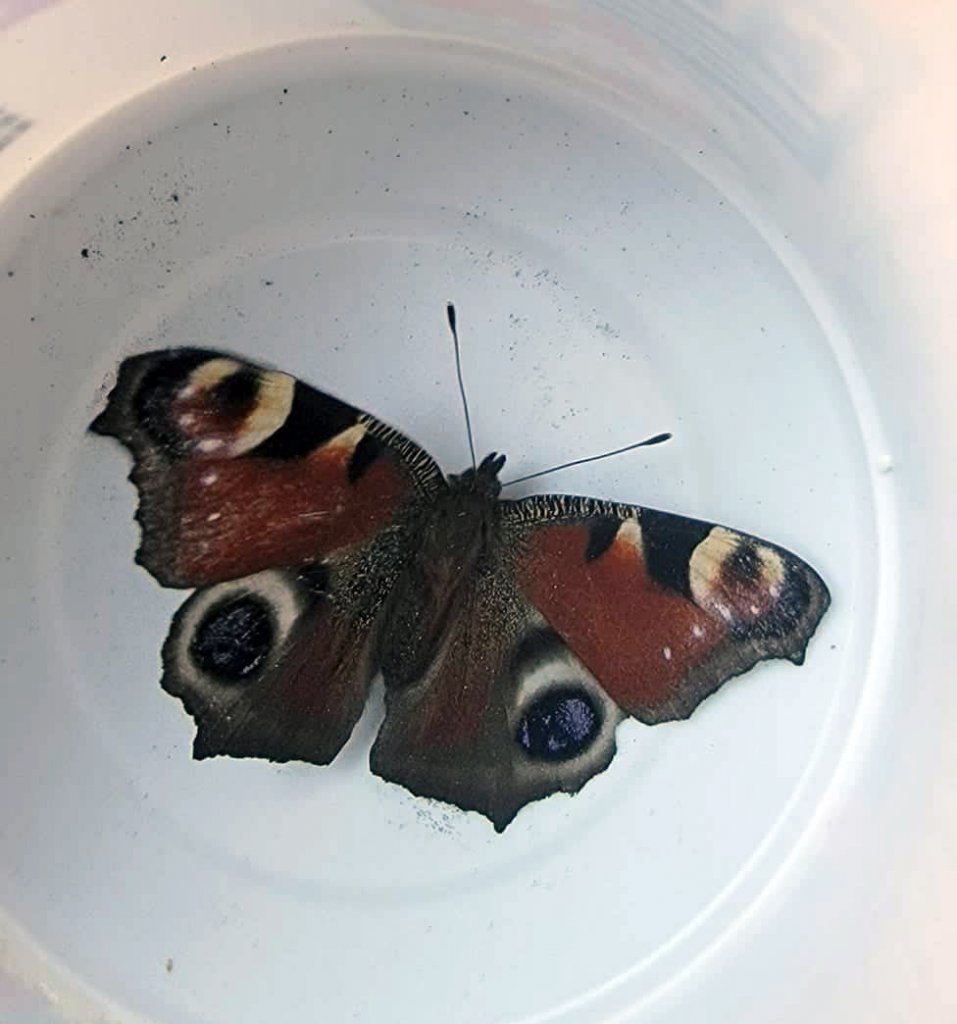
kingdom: Animalia
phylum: Arthropoda
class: Insecta
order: Lepidoptera
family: Nymphalidae
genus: Aglais
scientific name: Aglais io
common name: European Peacock
